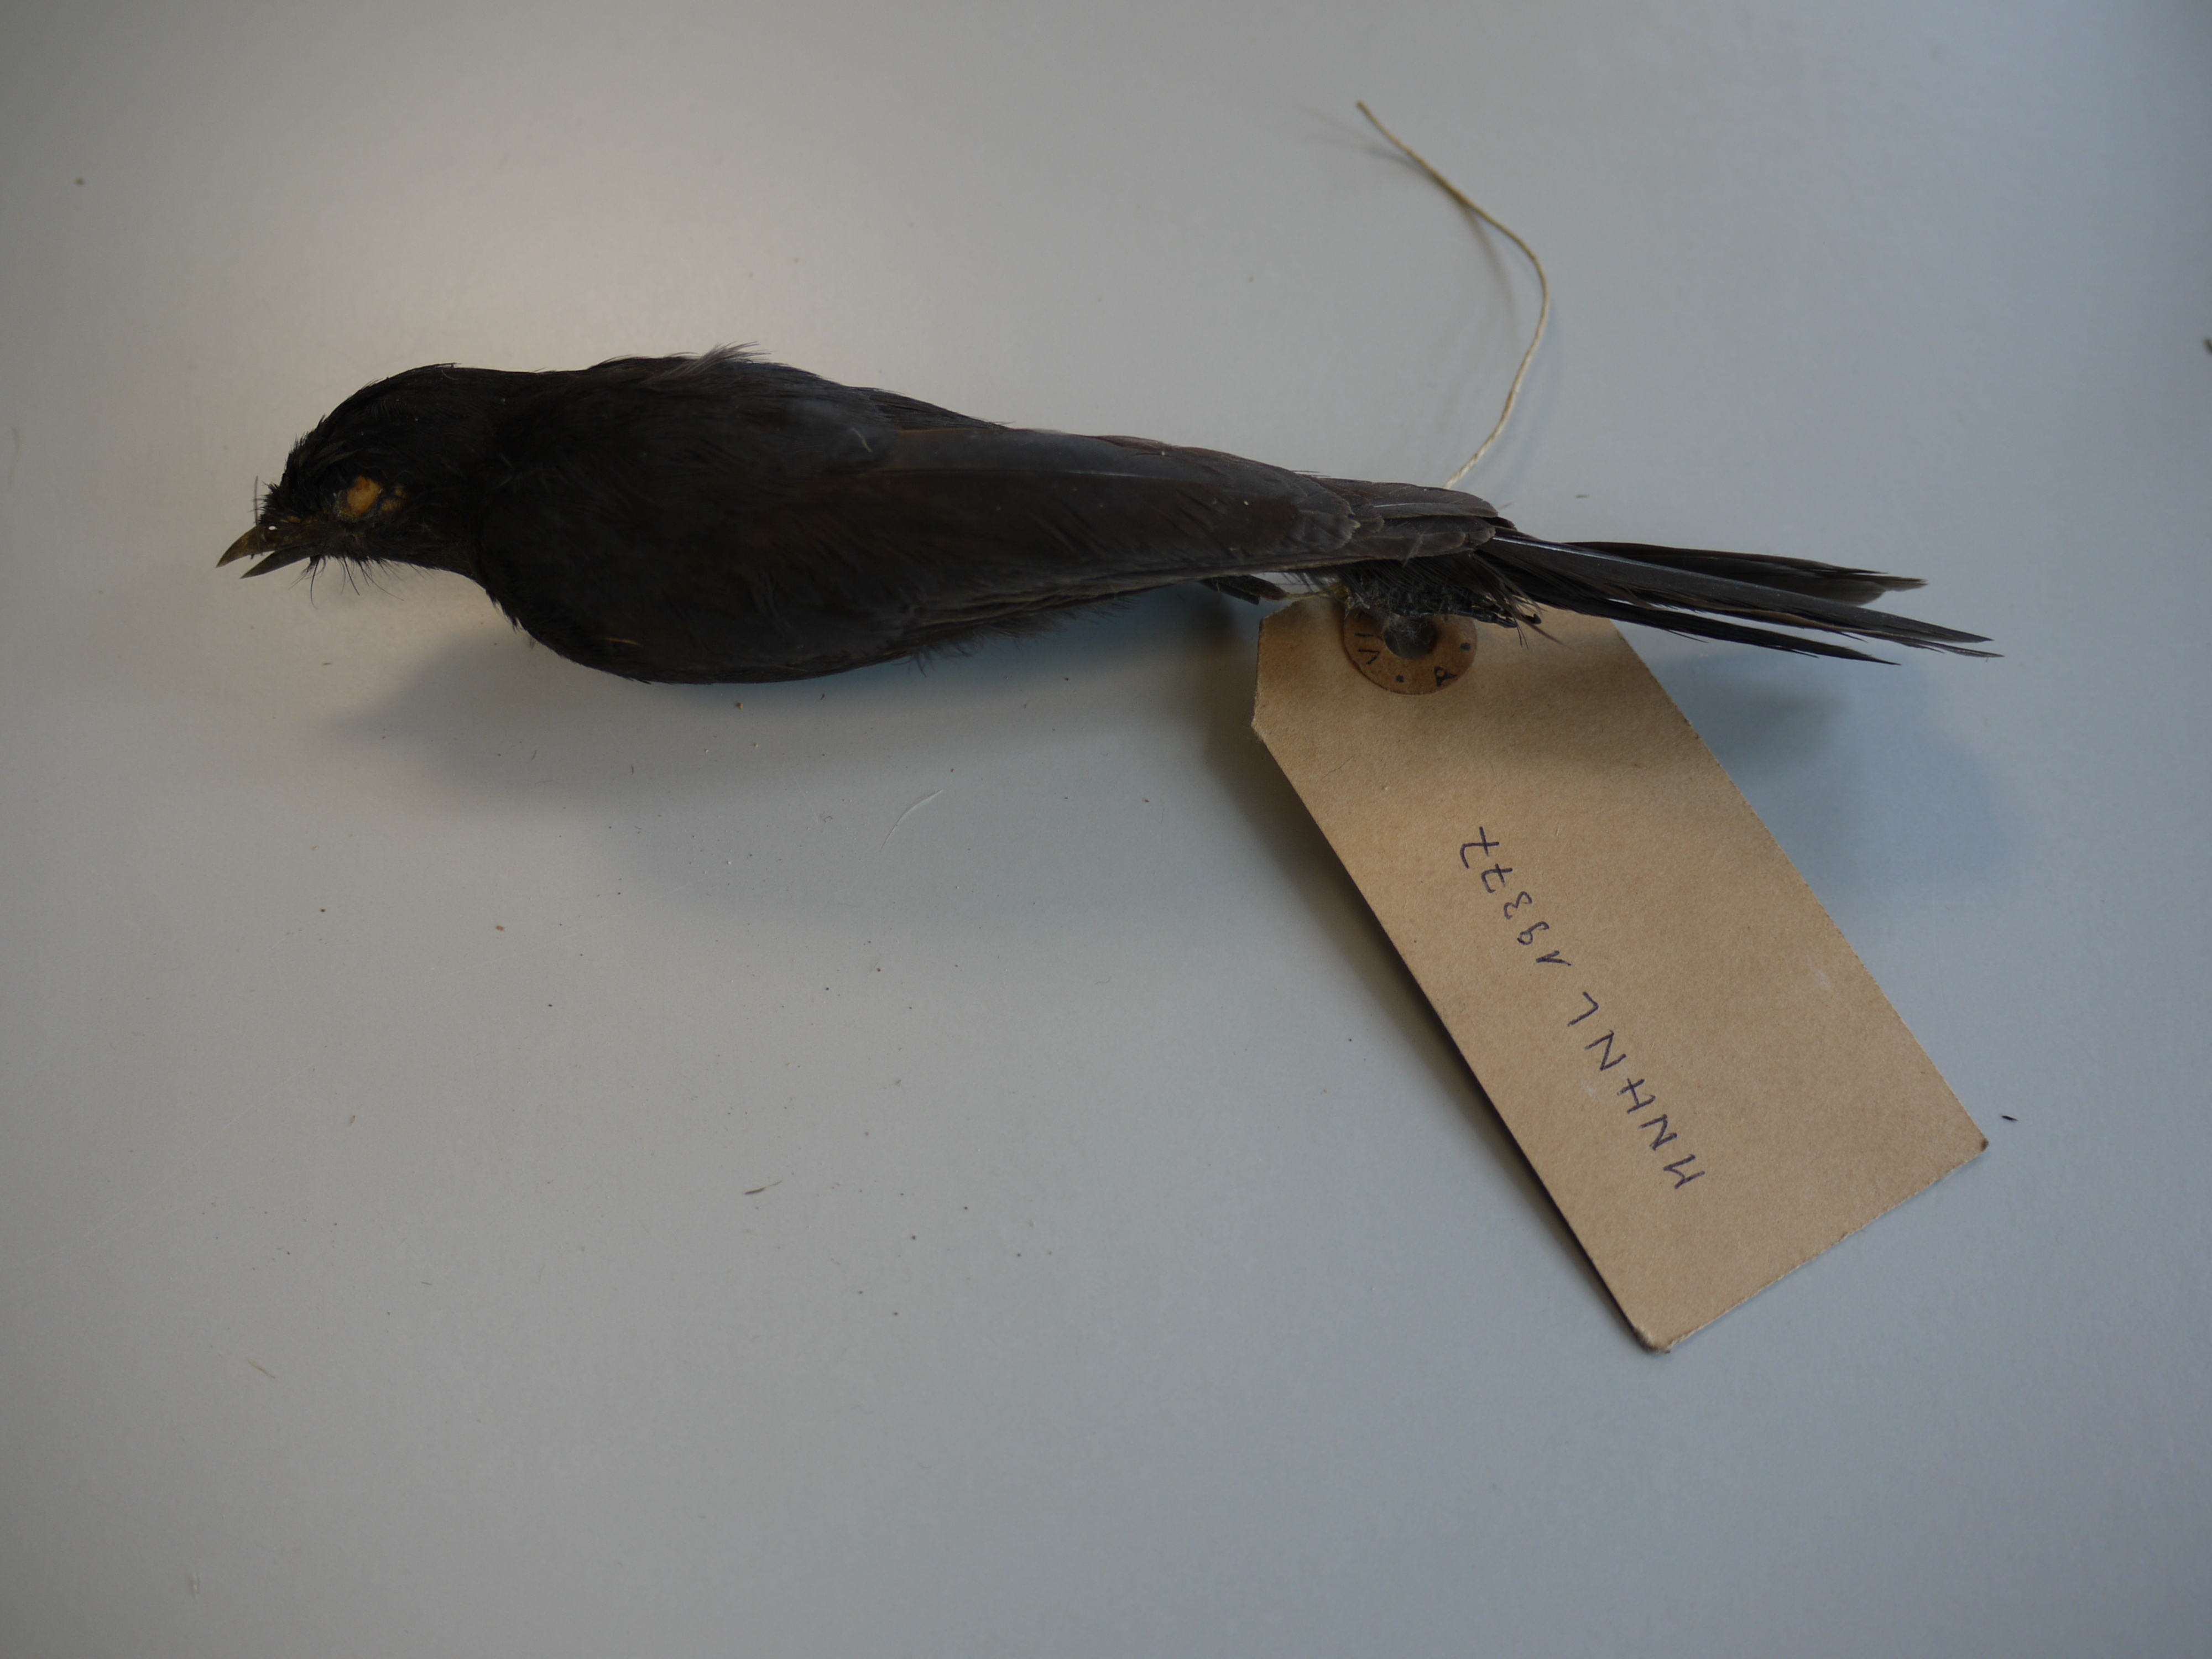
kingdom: Animalia
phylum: Chordata
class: Aves
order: Passeriformes
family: Muscicapidae
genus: Melaenornis
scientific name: Melaenornis edolioides
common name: Northern black flycatcher
